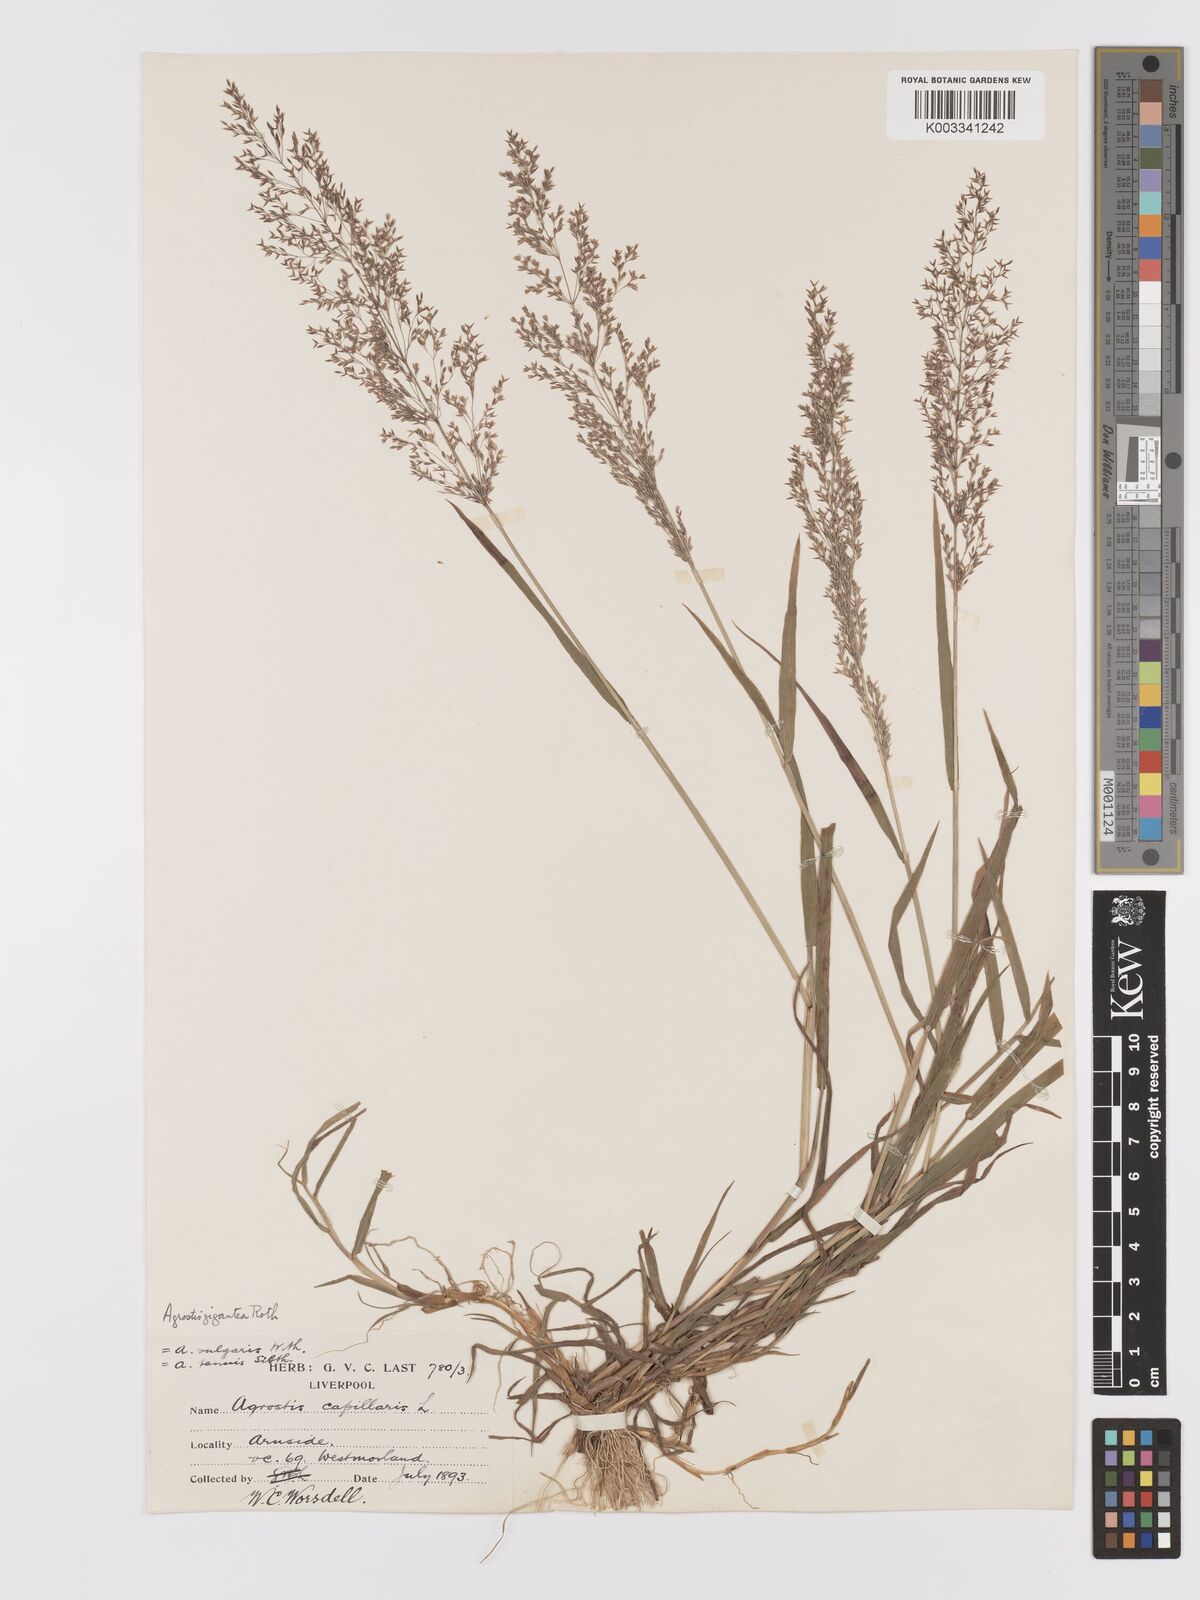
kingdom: Plantae
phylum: Tracheophyta
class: Liliopsida
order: Poales
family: Poaceae
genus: Agrostis
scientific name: Agrostis gigantea
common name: Black bent
